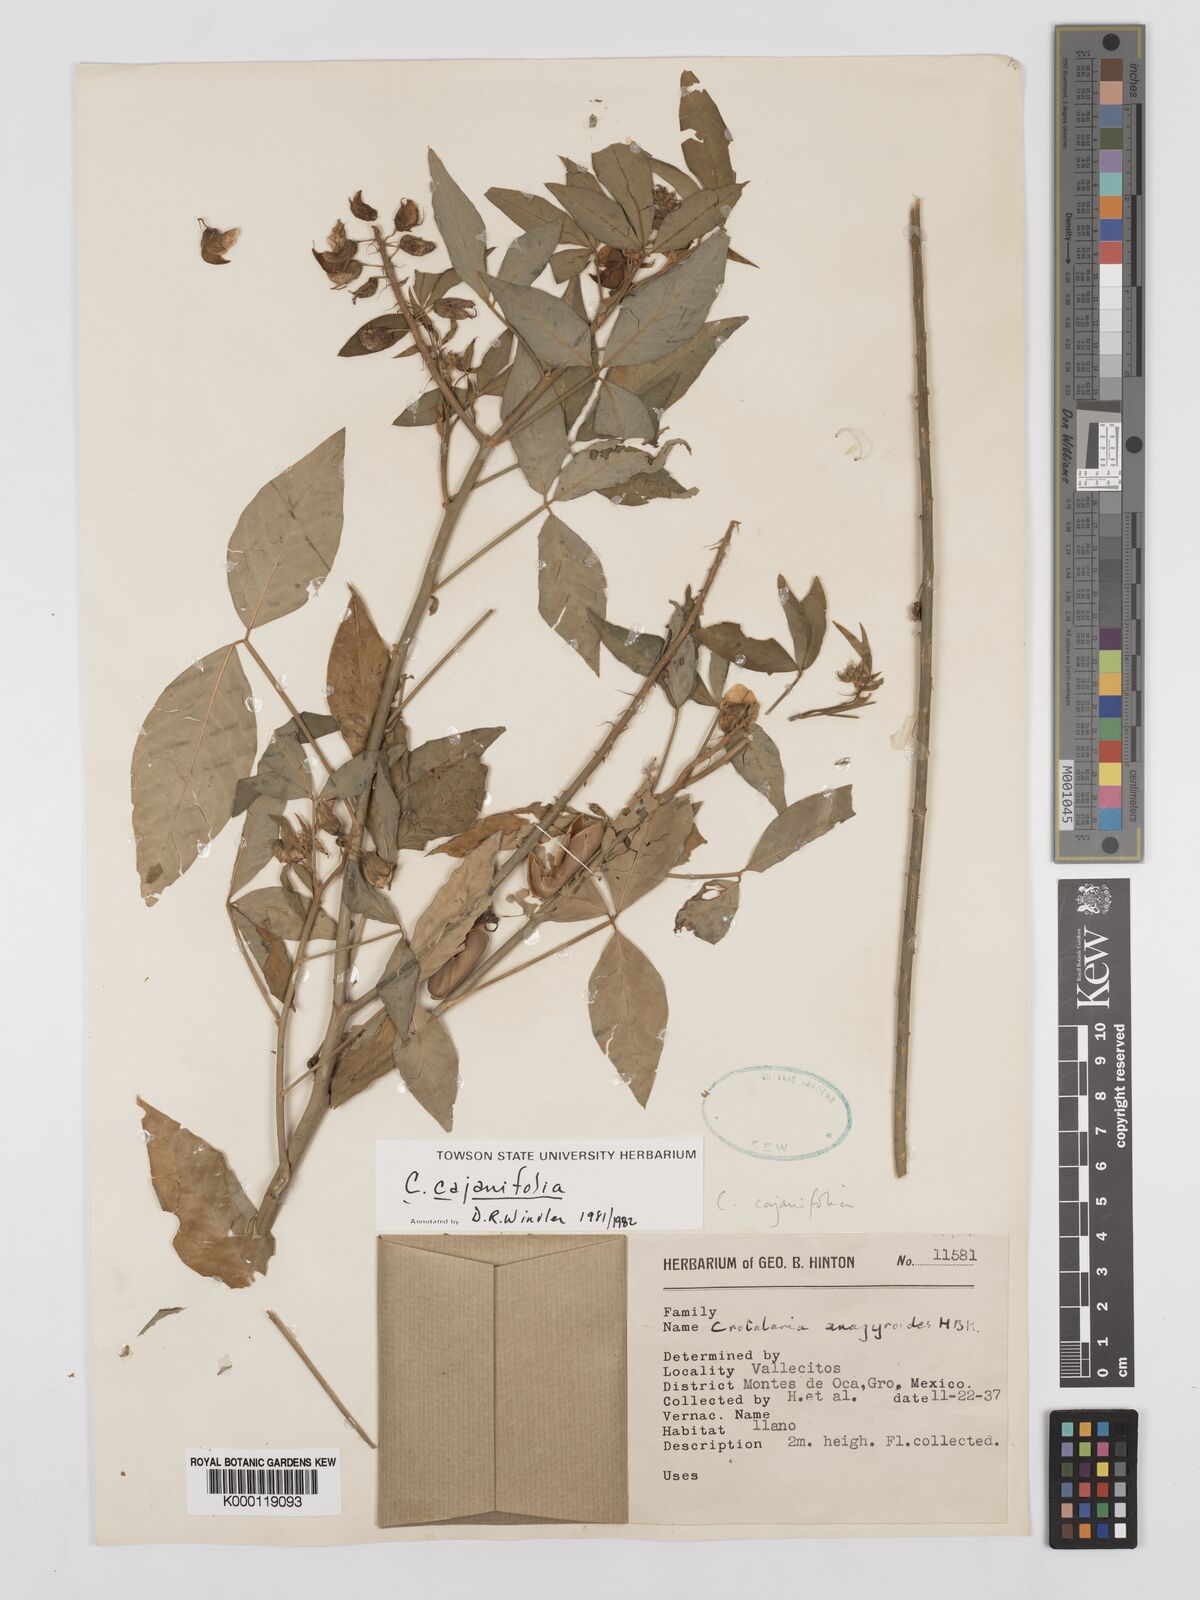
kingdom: Plantae
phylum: Tracheophyta
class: Magnoliopsida
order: Fabales
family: Fabaceae
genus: Crotalaria
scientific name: Crotalaria cajanifolia
